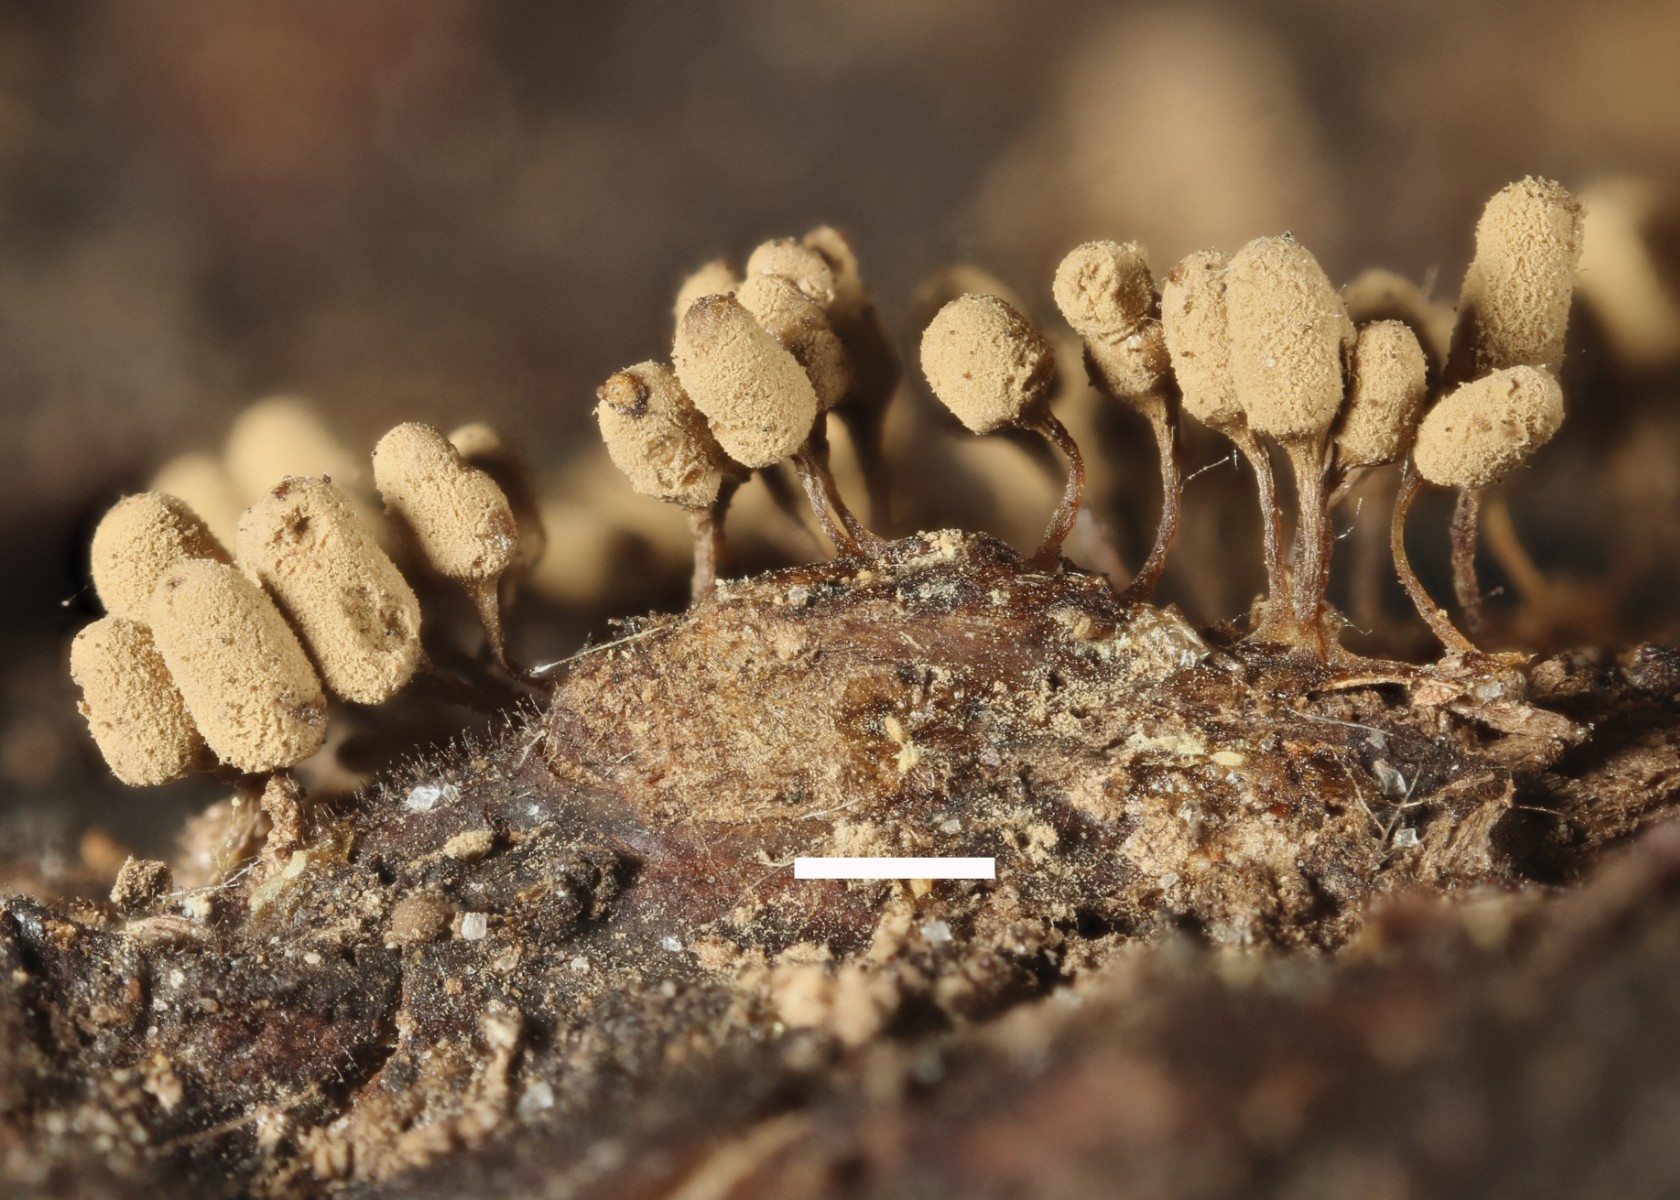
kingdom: Protozoa
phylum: Mycetozoa
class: Myxomycetes
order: Trichiales
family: Arcyriaceae
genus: Arcyria
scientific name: Arcyria cinerea
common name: White carnival candy slime mold
